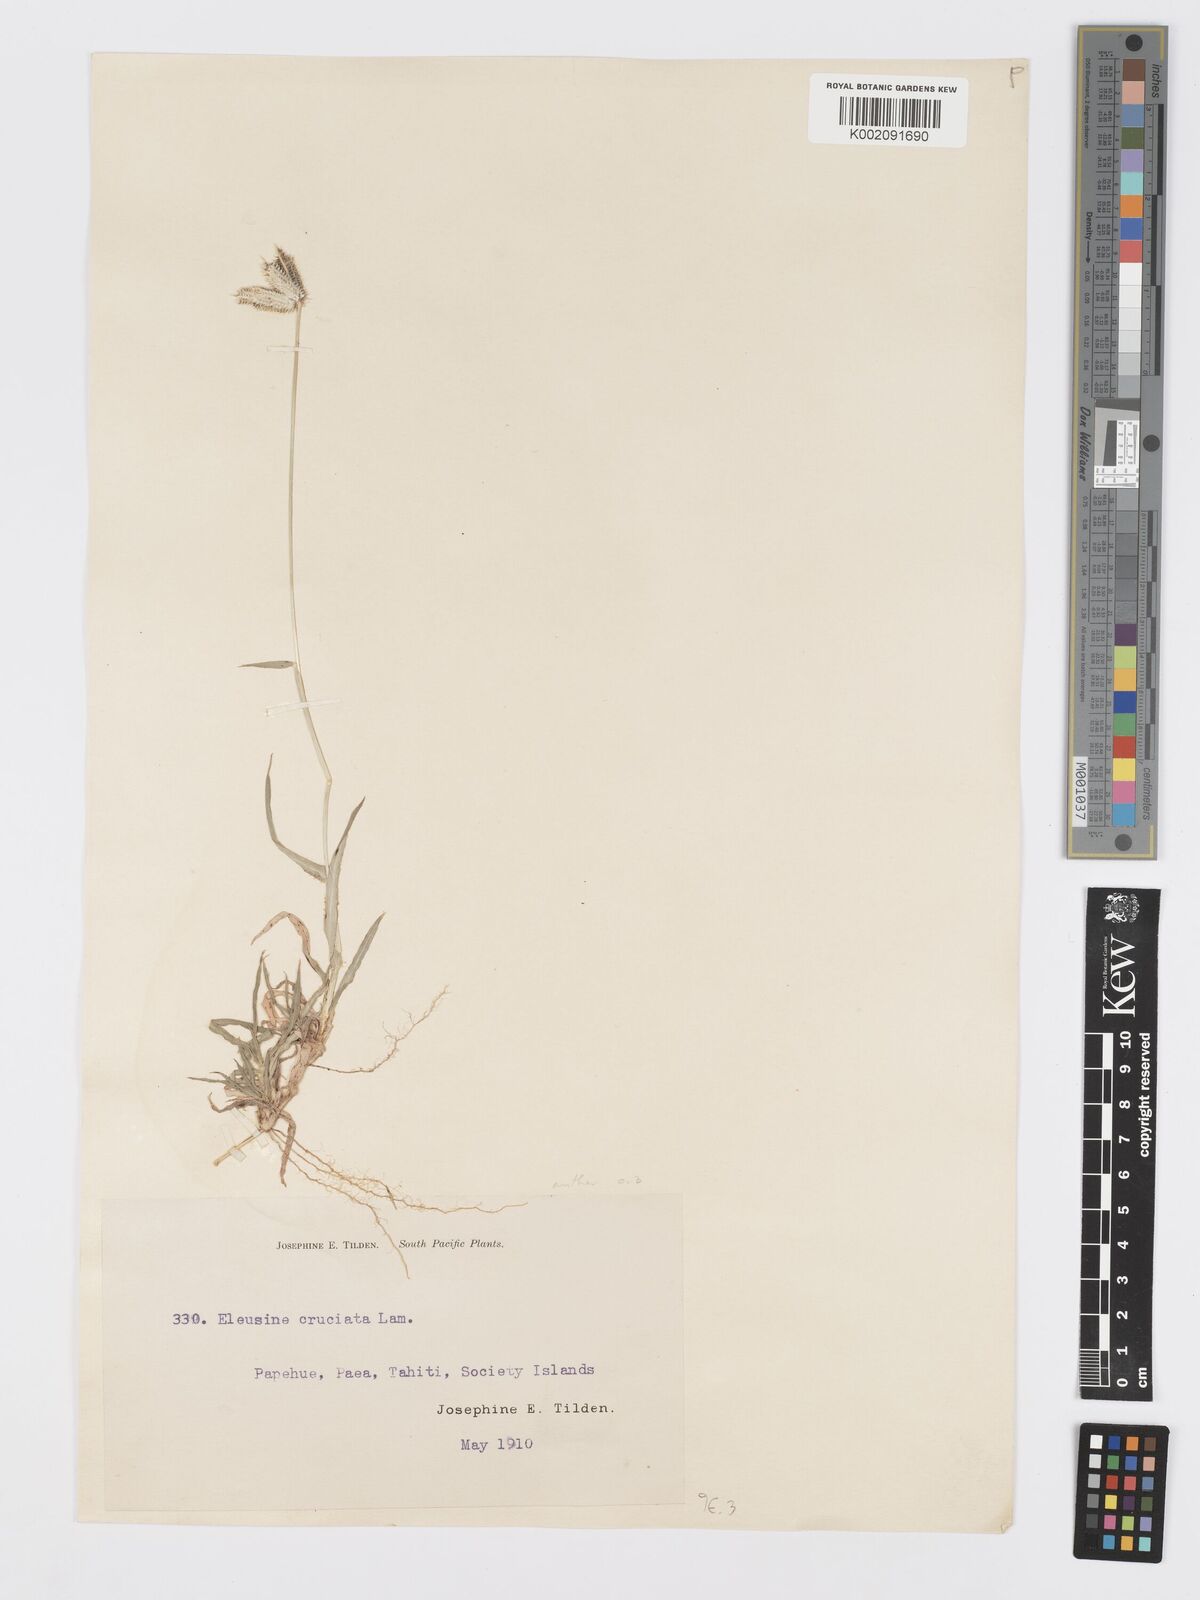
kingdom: Plantae
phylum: Tracheophyta
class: Liliopsida
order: Poales
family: Poaceae
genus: Dactyloctenium
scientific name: Dactyloctenium aegyptium
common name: Egyptian grass
